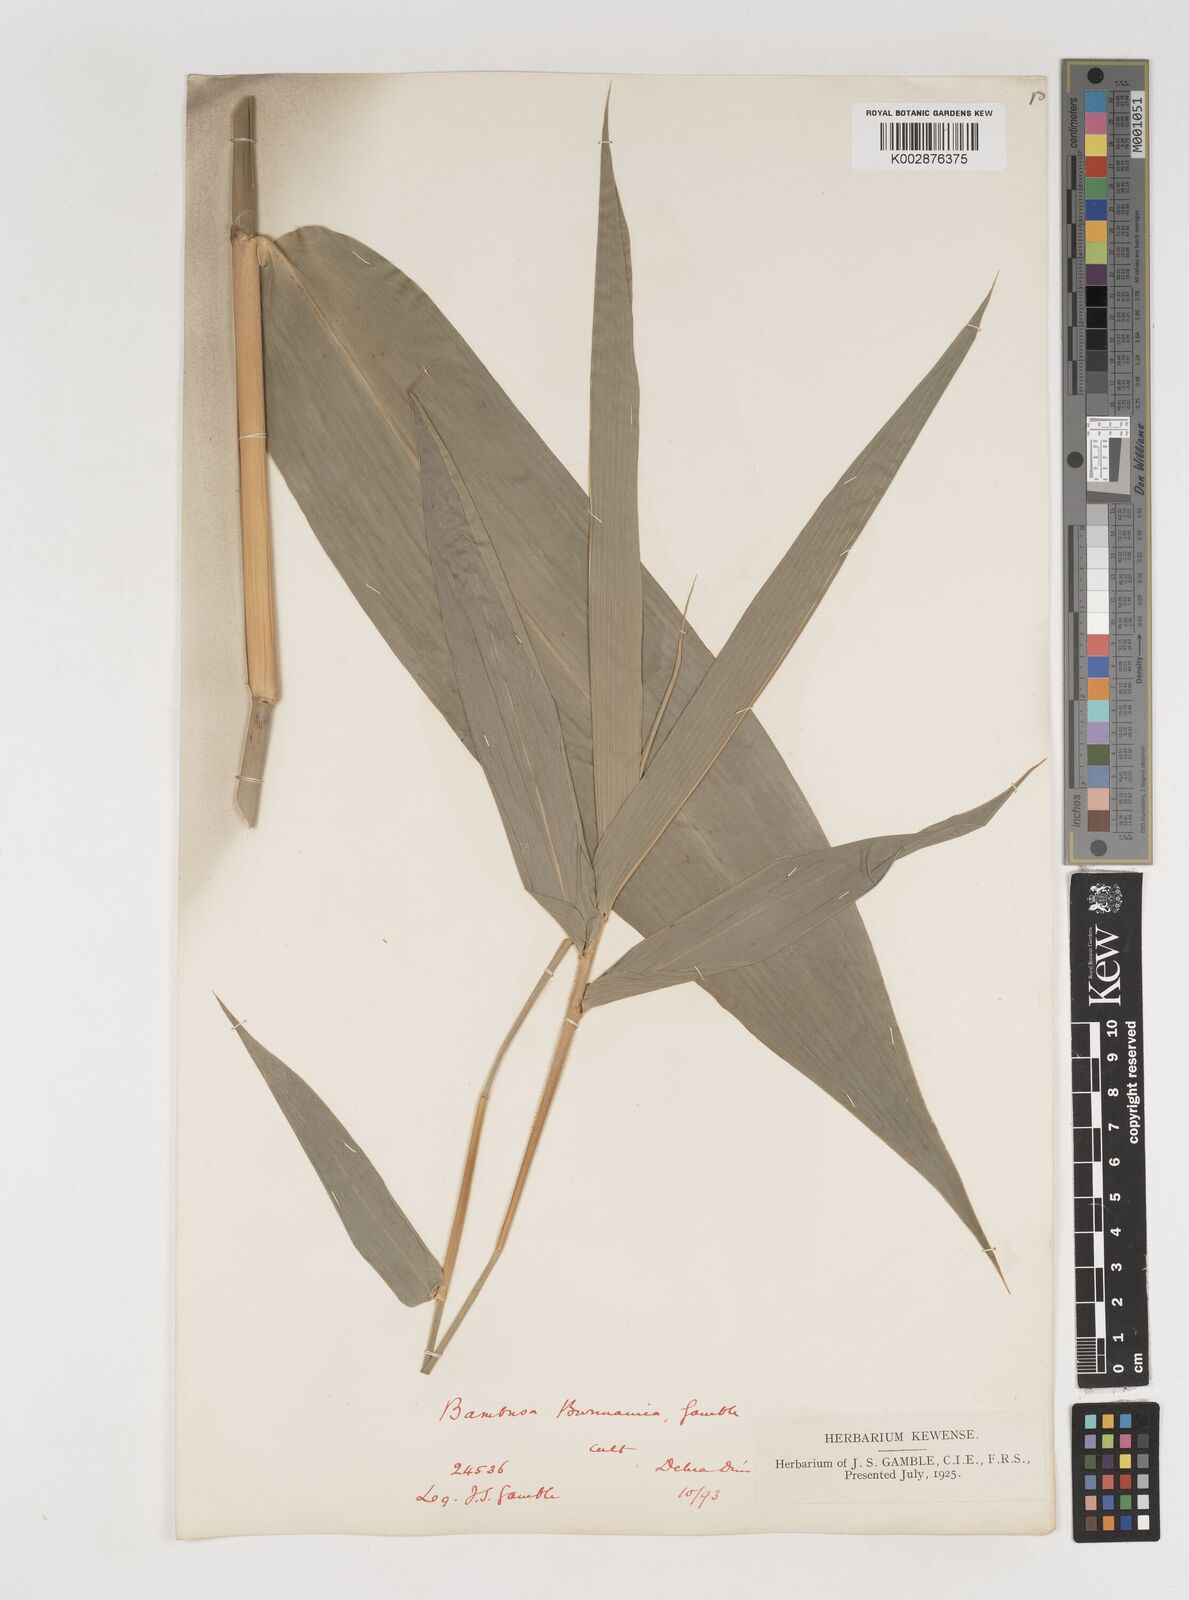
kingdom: Plantae
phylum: Tracheophyta
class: Liliopsida
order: Poales
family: Poaceae
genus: Bambusa
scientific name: Bambusa burmanica
